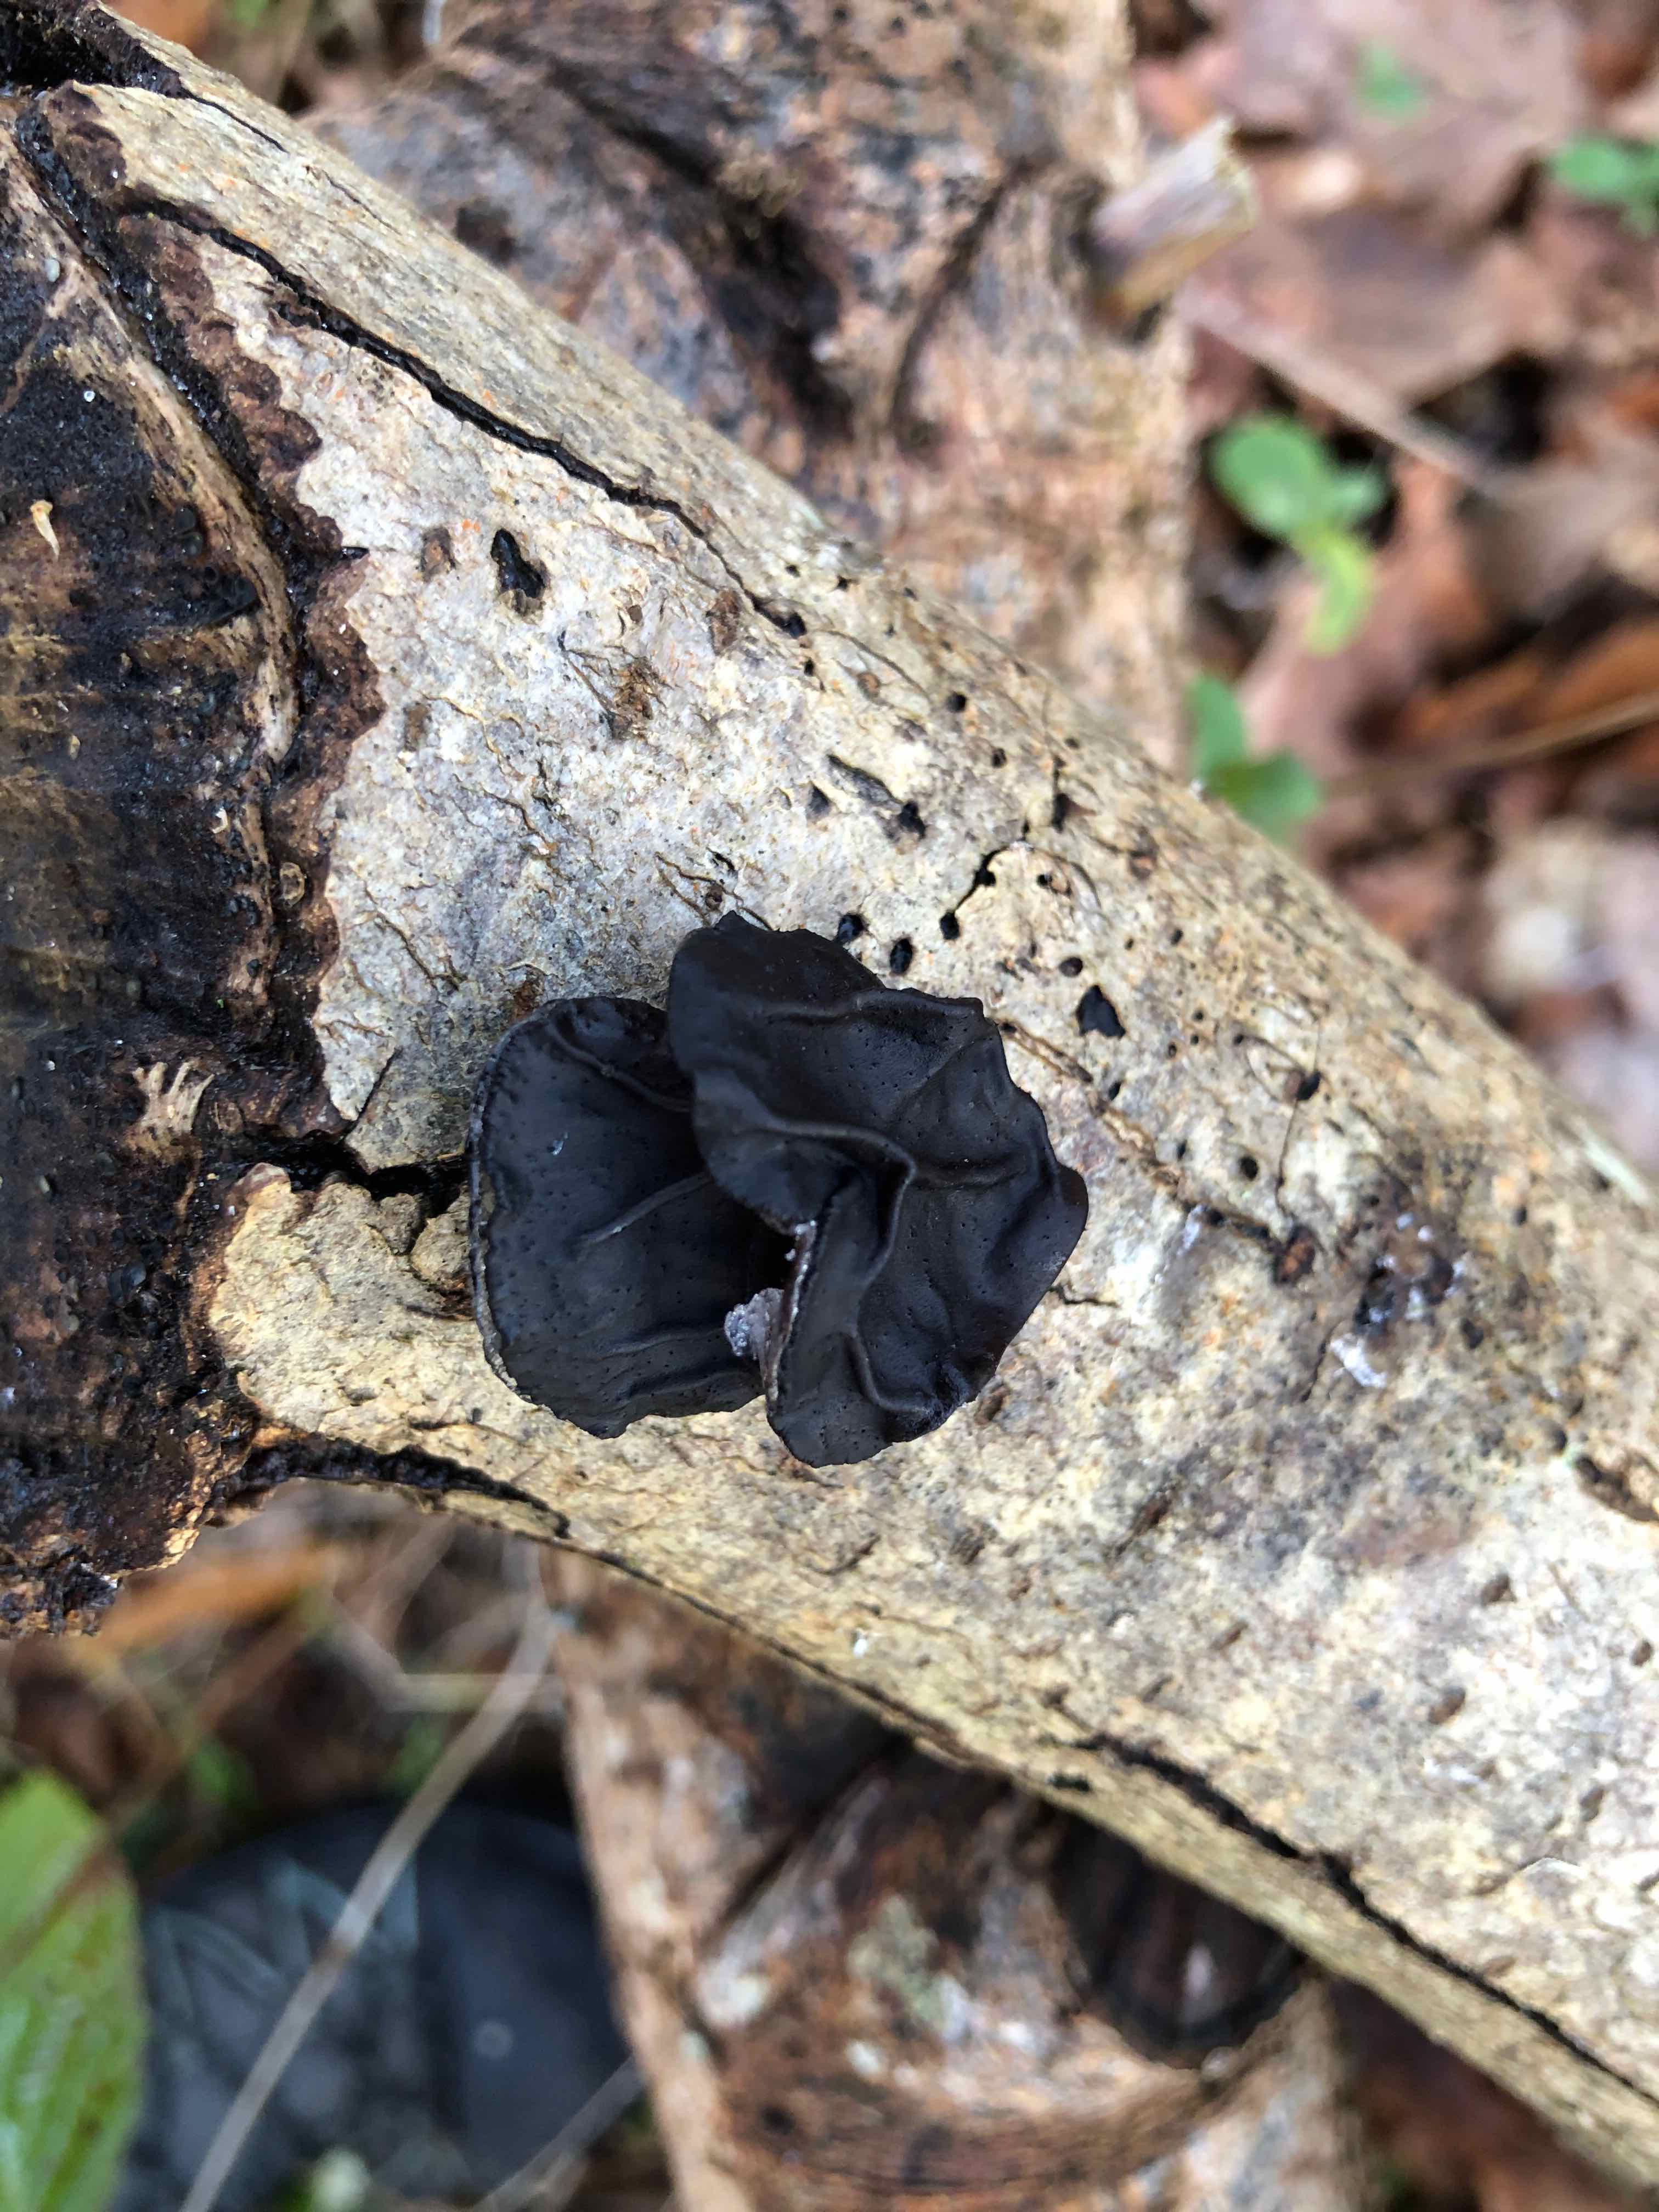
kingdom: Fungi
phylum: Basidiomycota
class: Agaricomycetes
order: Auriculariales
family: Auriculariaceae
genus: Exidia
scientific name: Exidia glandulosa
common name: ege-bævretop
